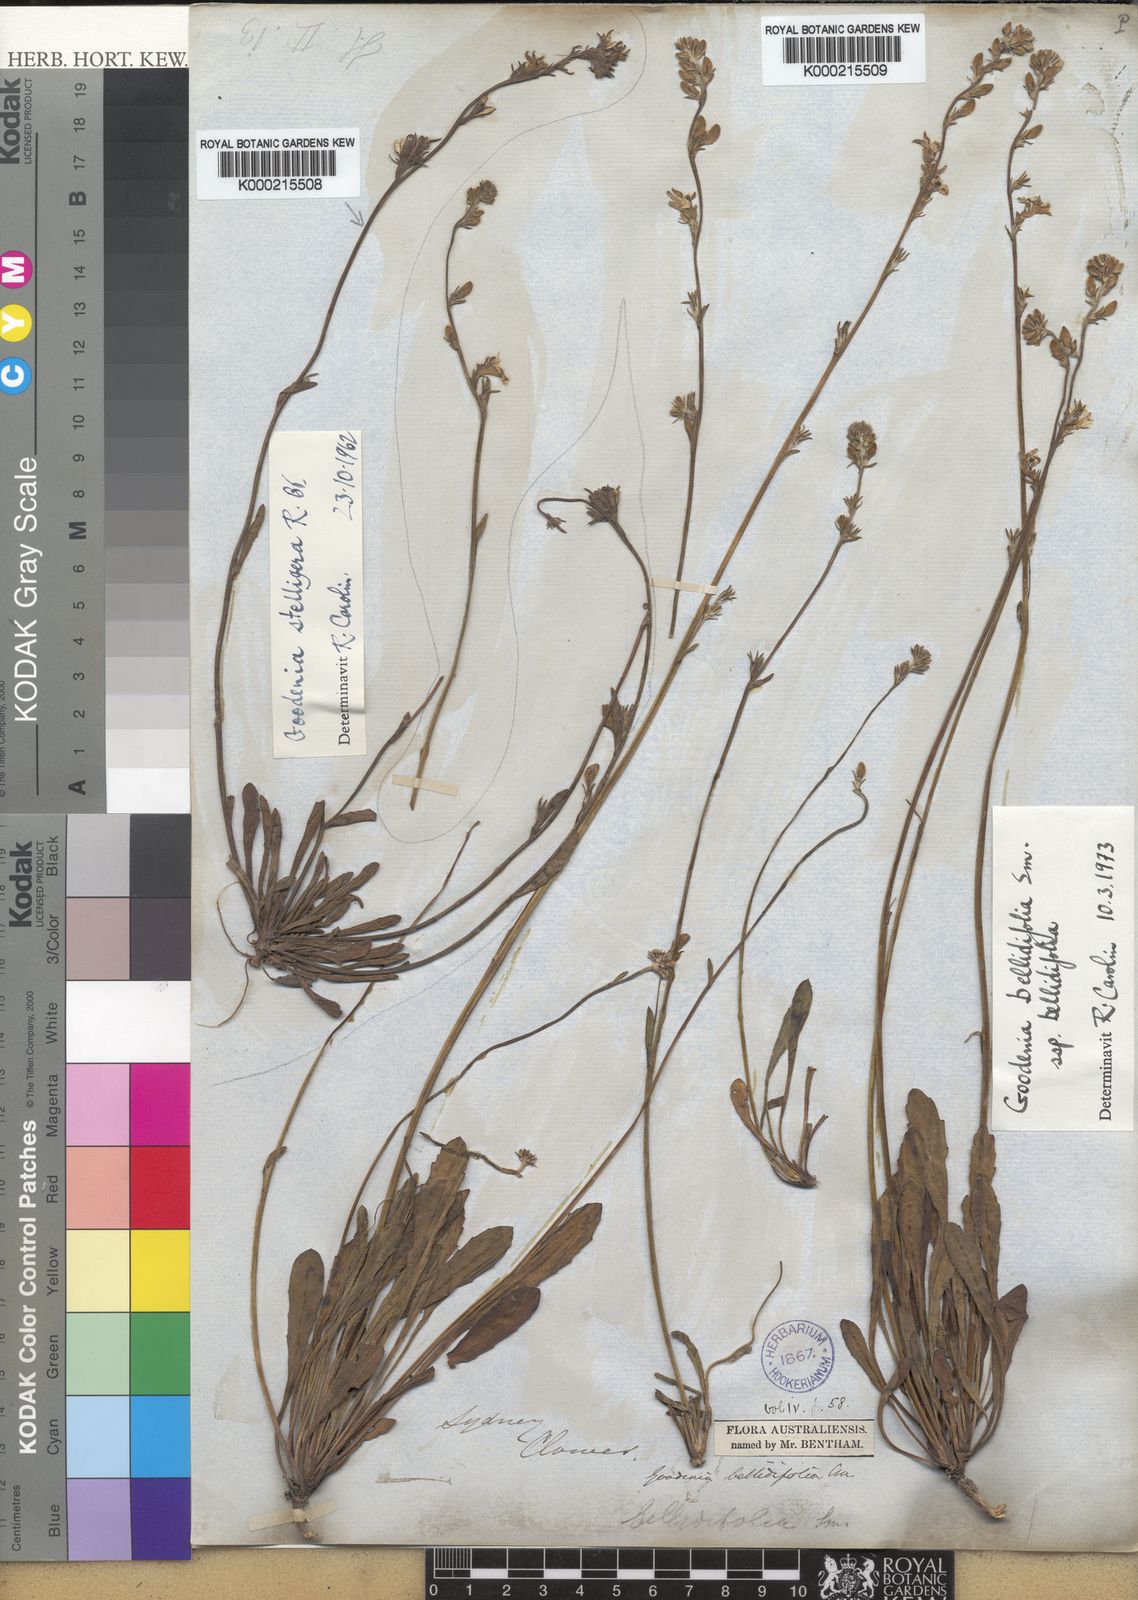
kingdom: Plantae
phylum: Tracheophyta
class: Magnoliopsida
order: Asterales
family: Goodeniaceae
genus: Goodenia
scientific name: Goodenia
